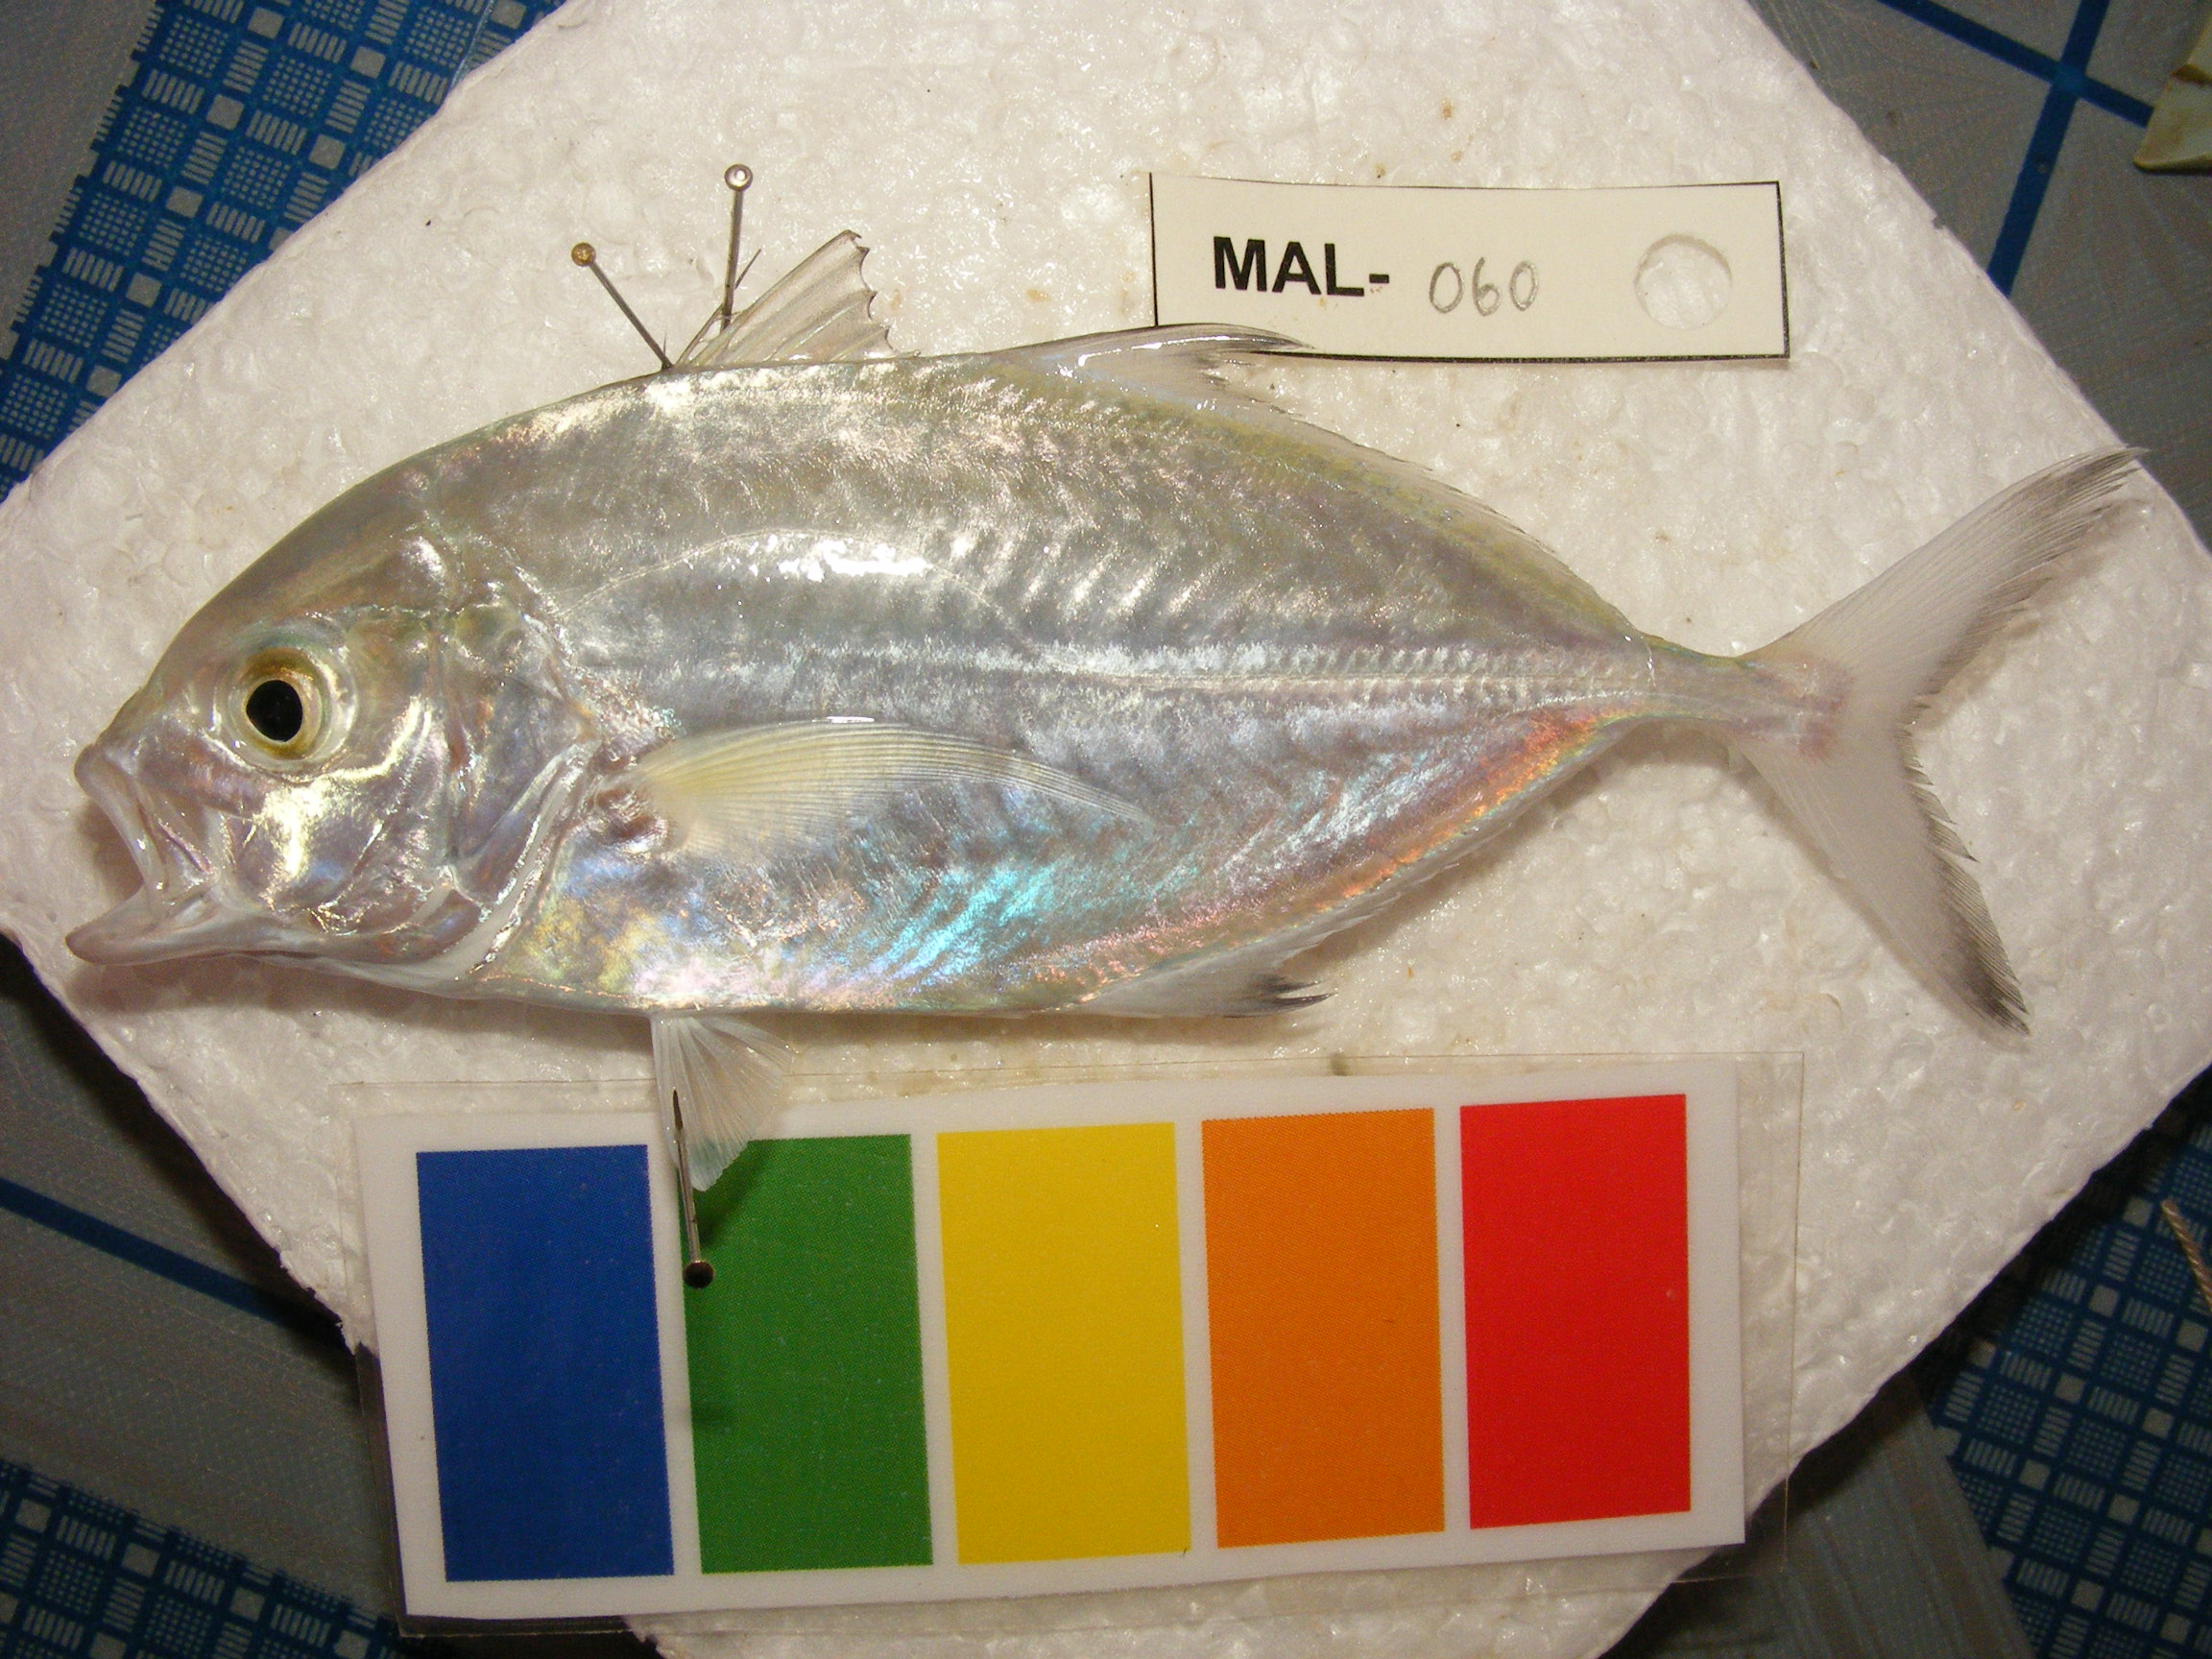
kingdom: Animalia
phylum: Chordata
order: Perciformes
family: Carangidae
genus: Carangoides
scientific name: Carangoides
